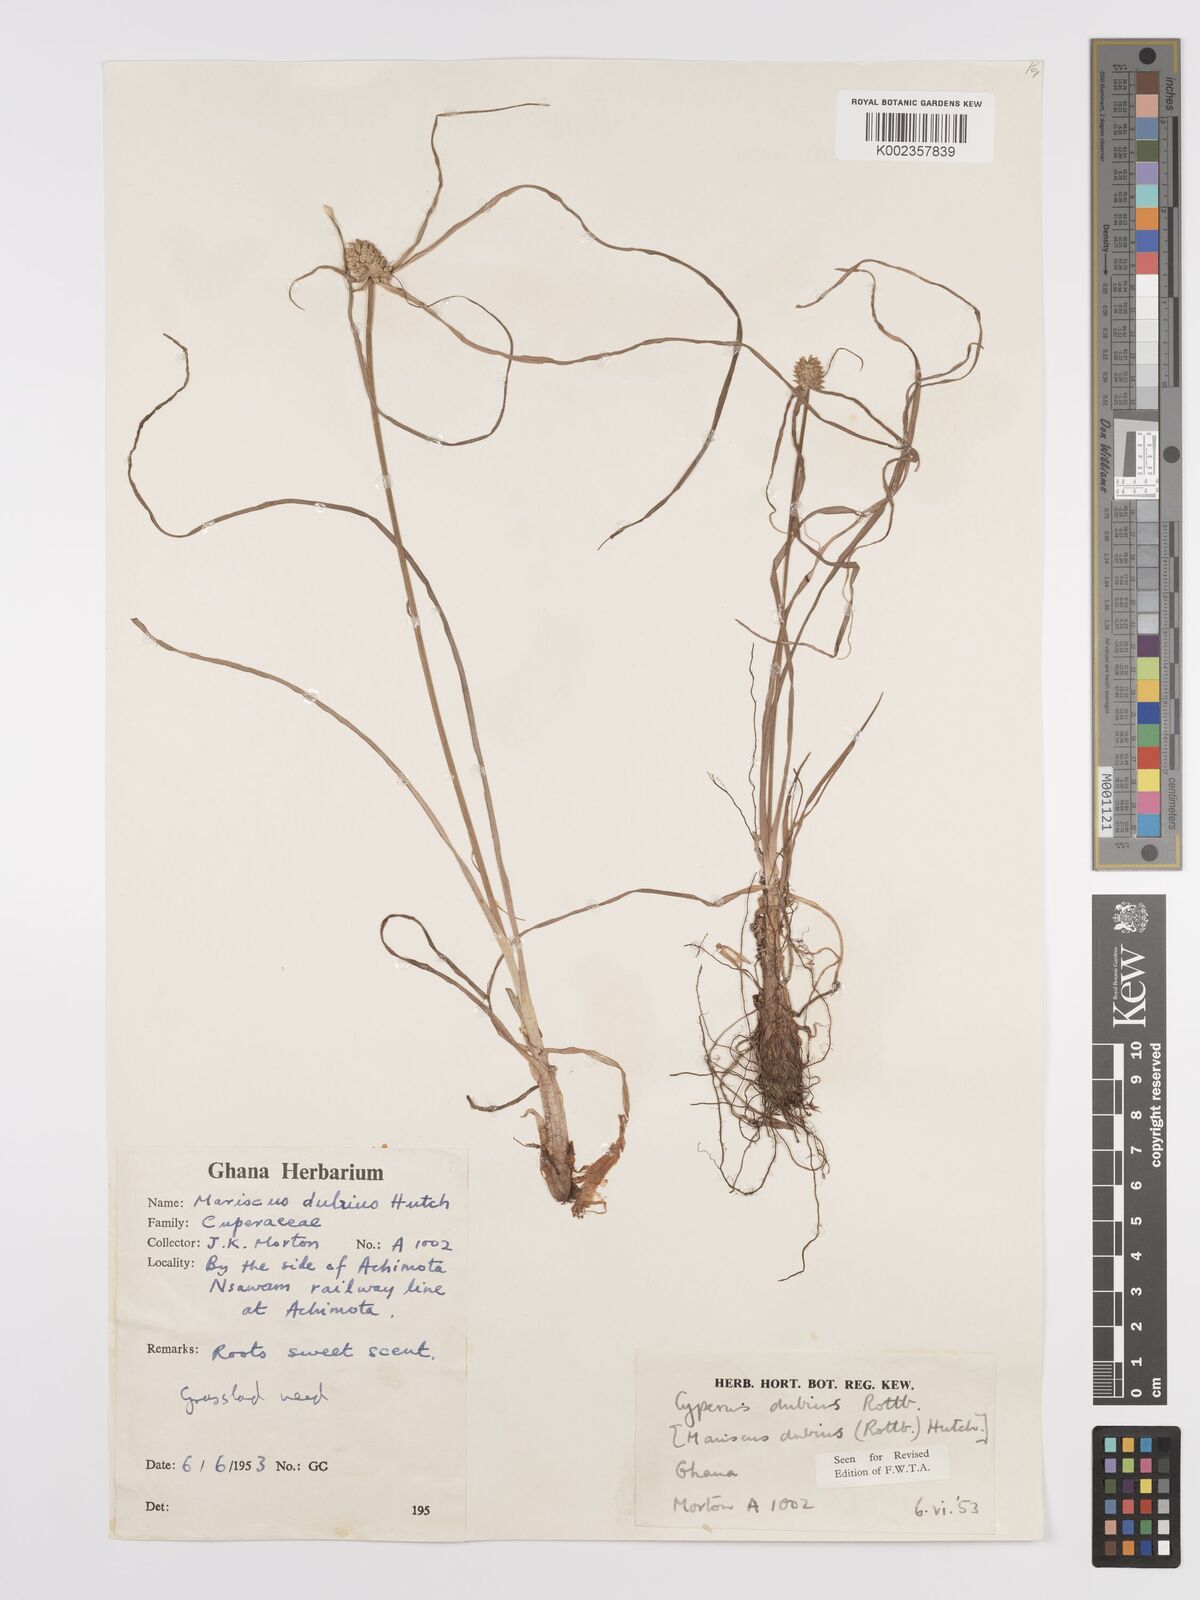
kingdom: Plantae
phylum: Tracheophyta
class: Liliopsida
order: Poales
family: Cyperaceae
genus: Cyperus
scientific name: Cyperus dubius
